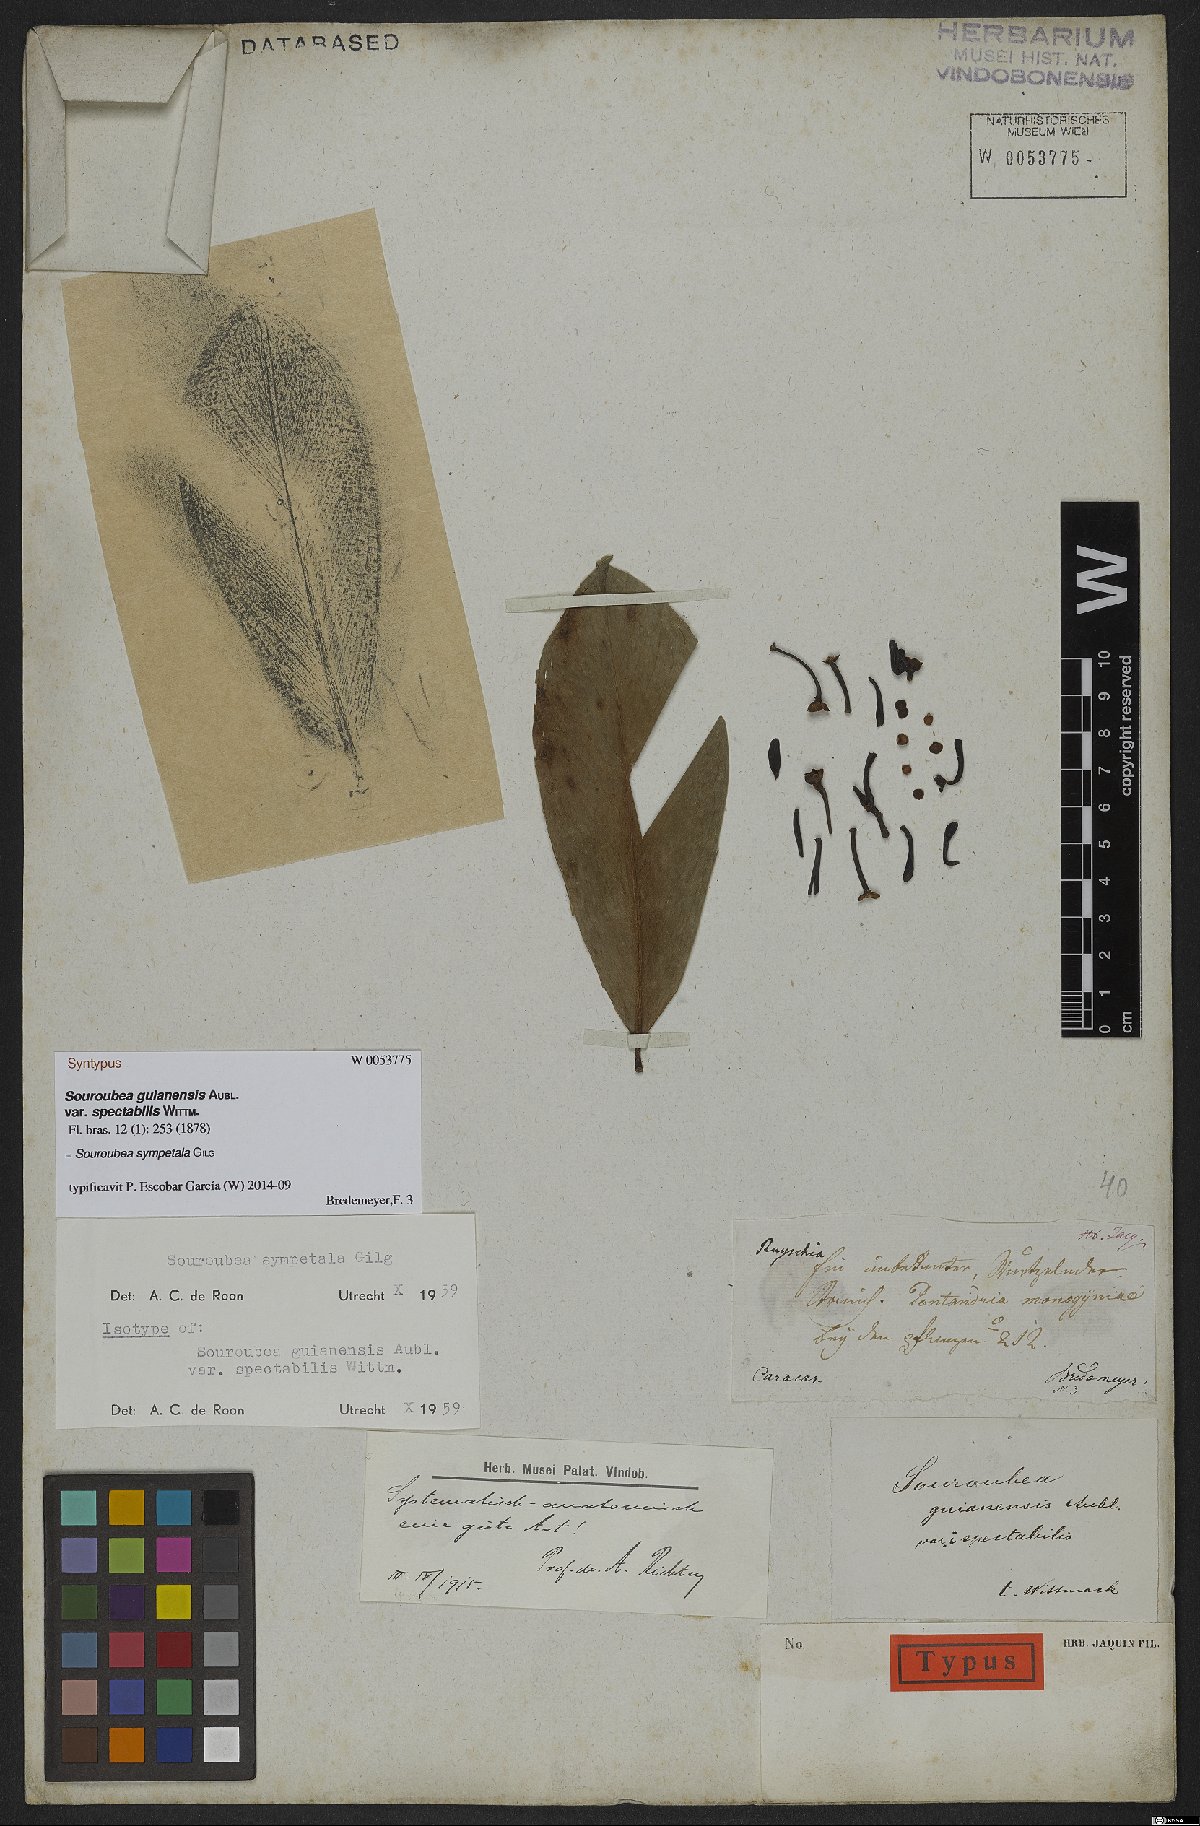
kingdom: Plantae
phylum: Tracheophyta
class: Magnoliopsida
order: Ericales
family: Marcgraviaceae
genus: Souroubea
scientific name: Souroubea sympetala
